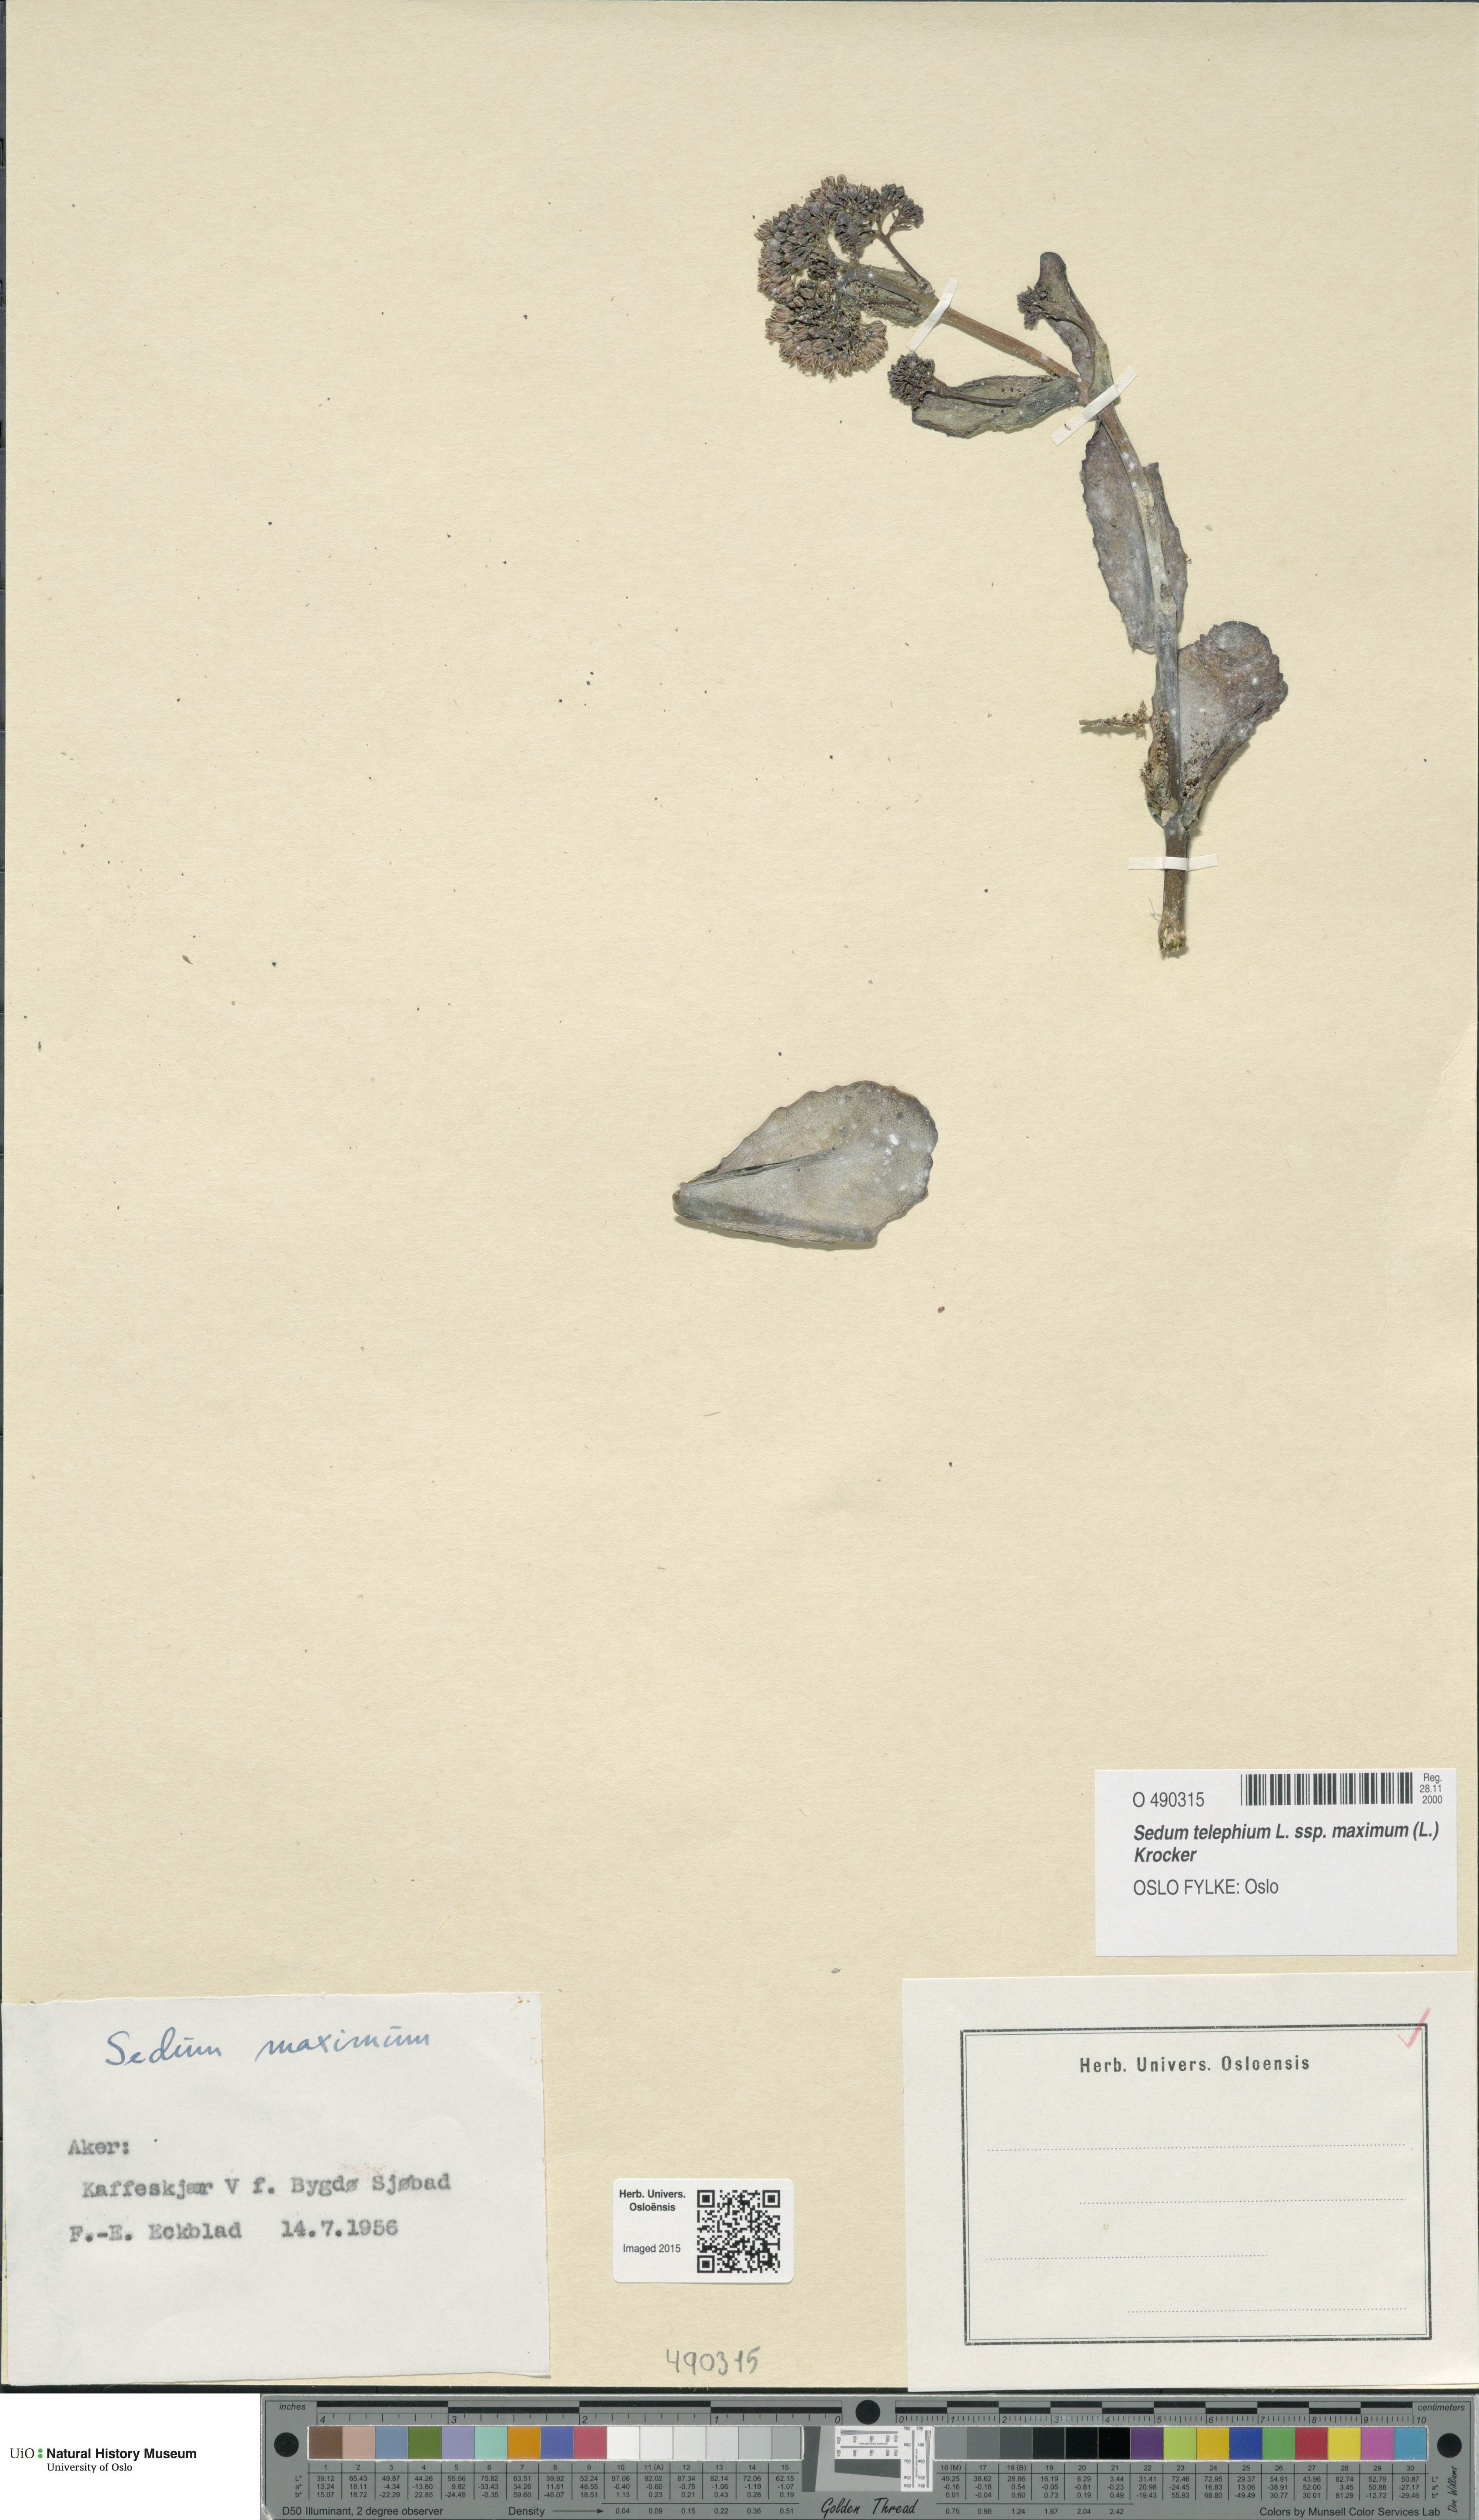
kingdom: Plantae
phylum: Tracheophyta
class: Magnoliopsida
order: Saxifragales
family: Crassulaceae
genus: Hylotelephium
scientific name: Hylotelephium maximum
